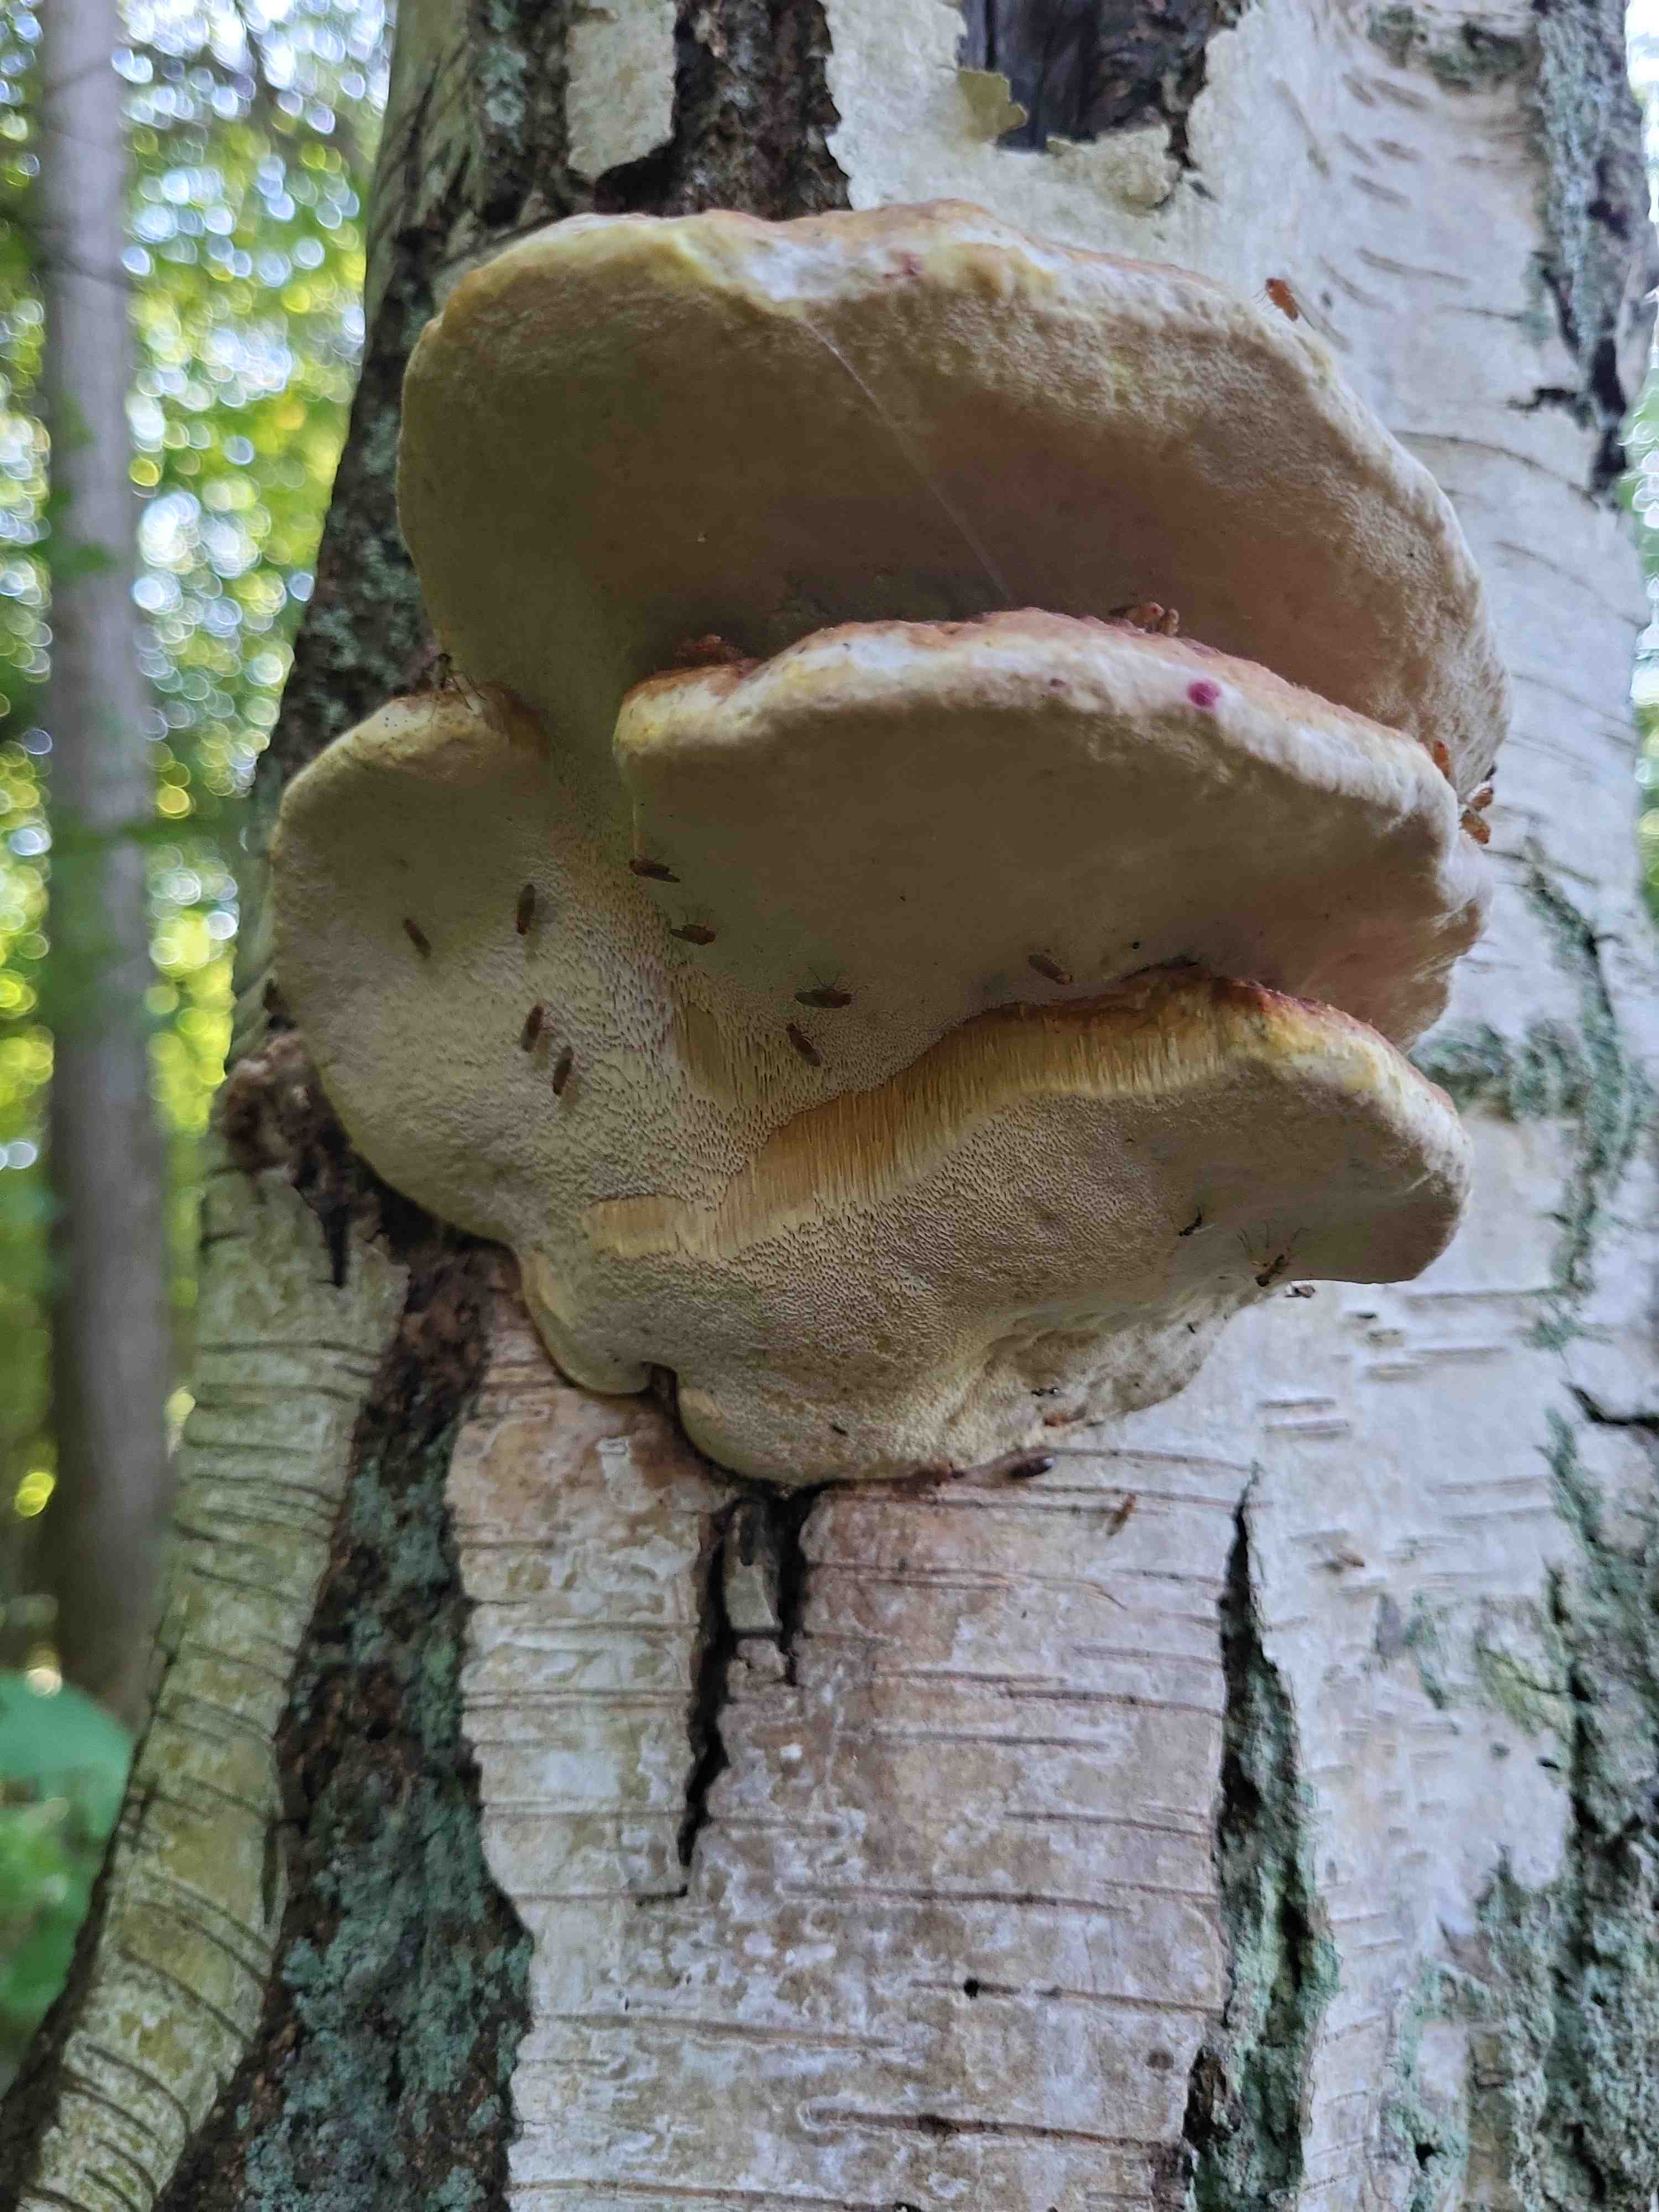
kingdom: Fungi
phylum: Basidiomycota
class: Agaricomycetes
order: Polyporales
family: Fomitopsidaceae
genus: Fomitopsis
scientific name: Fomitopsis pinicola
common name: randbæltet hovporesvamp
